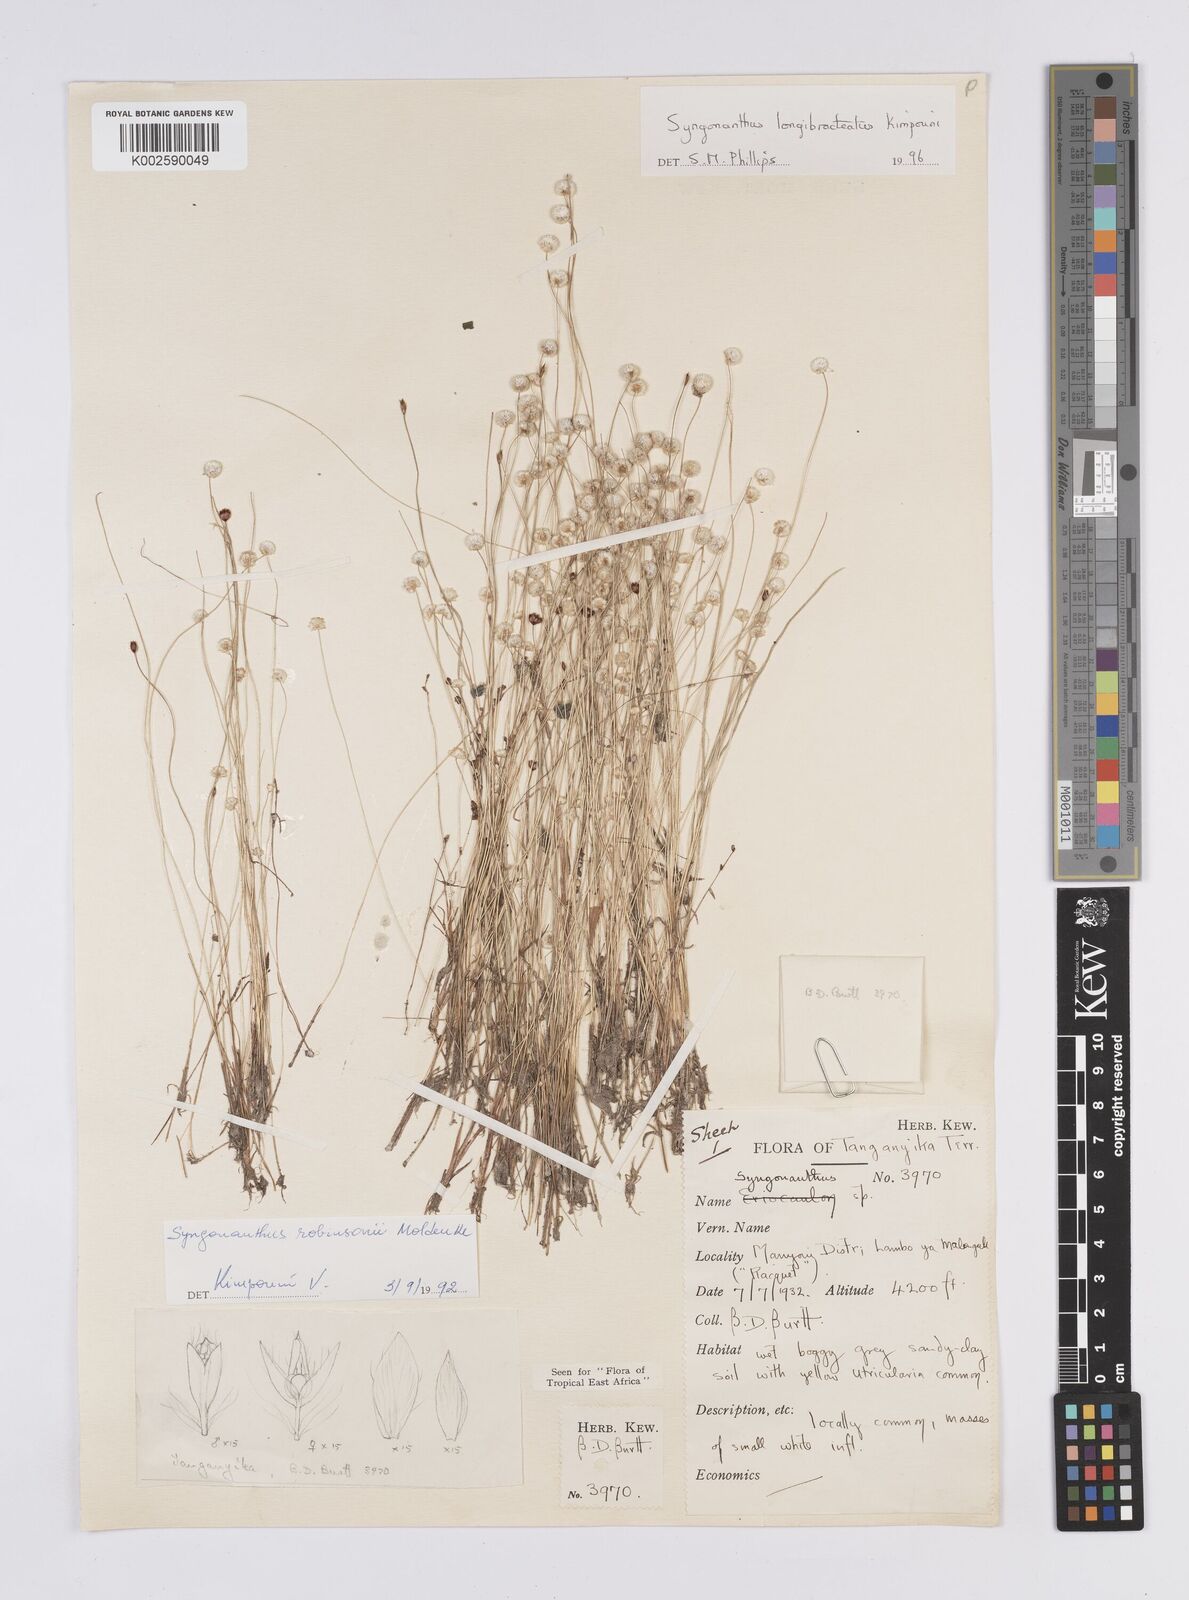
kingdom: Plantae
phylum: Tracheophyta
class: Liliopsida
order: Poales
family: Eriocaulaceae
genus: Syngonanthus
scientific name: Syngonanthus longibracteatus
